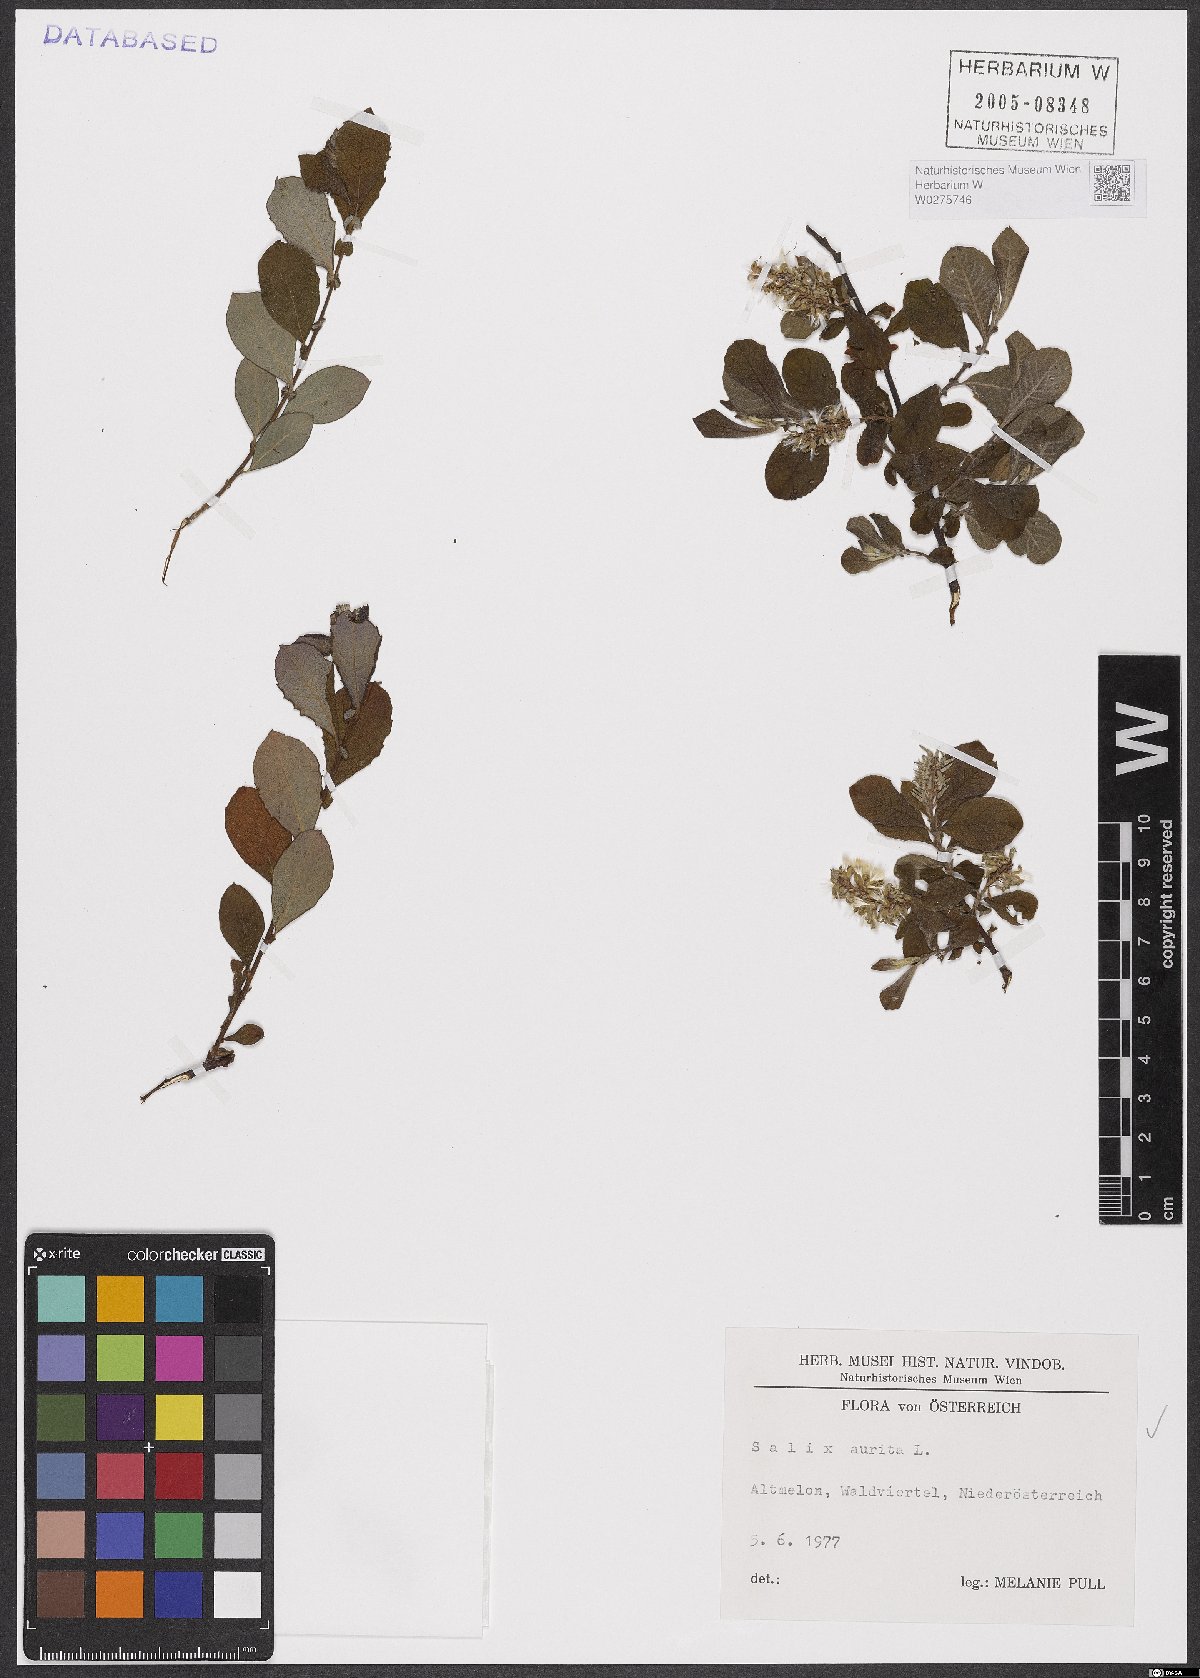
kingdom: Plantae
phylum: Tracheophyta
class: Magnoliopsida
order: Malpighiales
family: Salicaceae
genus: Salix
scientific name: Salix aurita
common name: Eared willow
